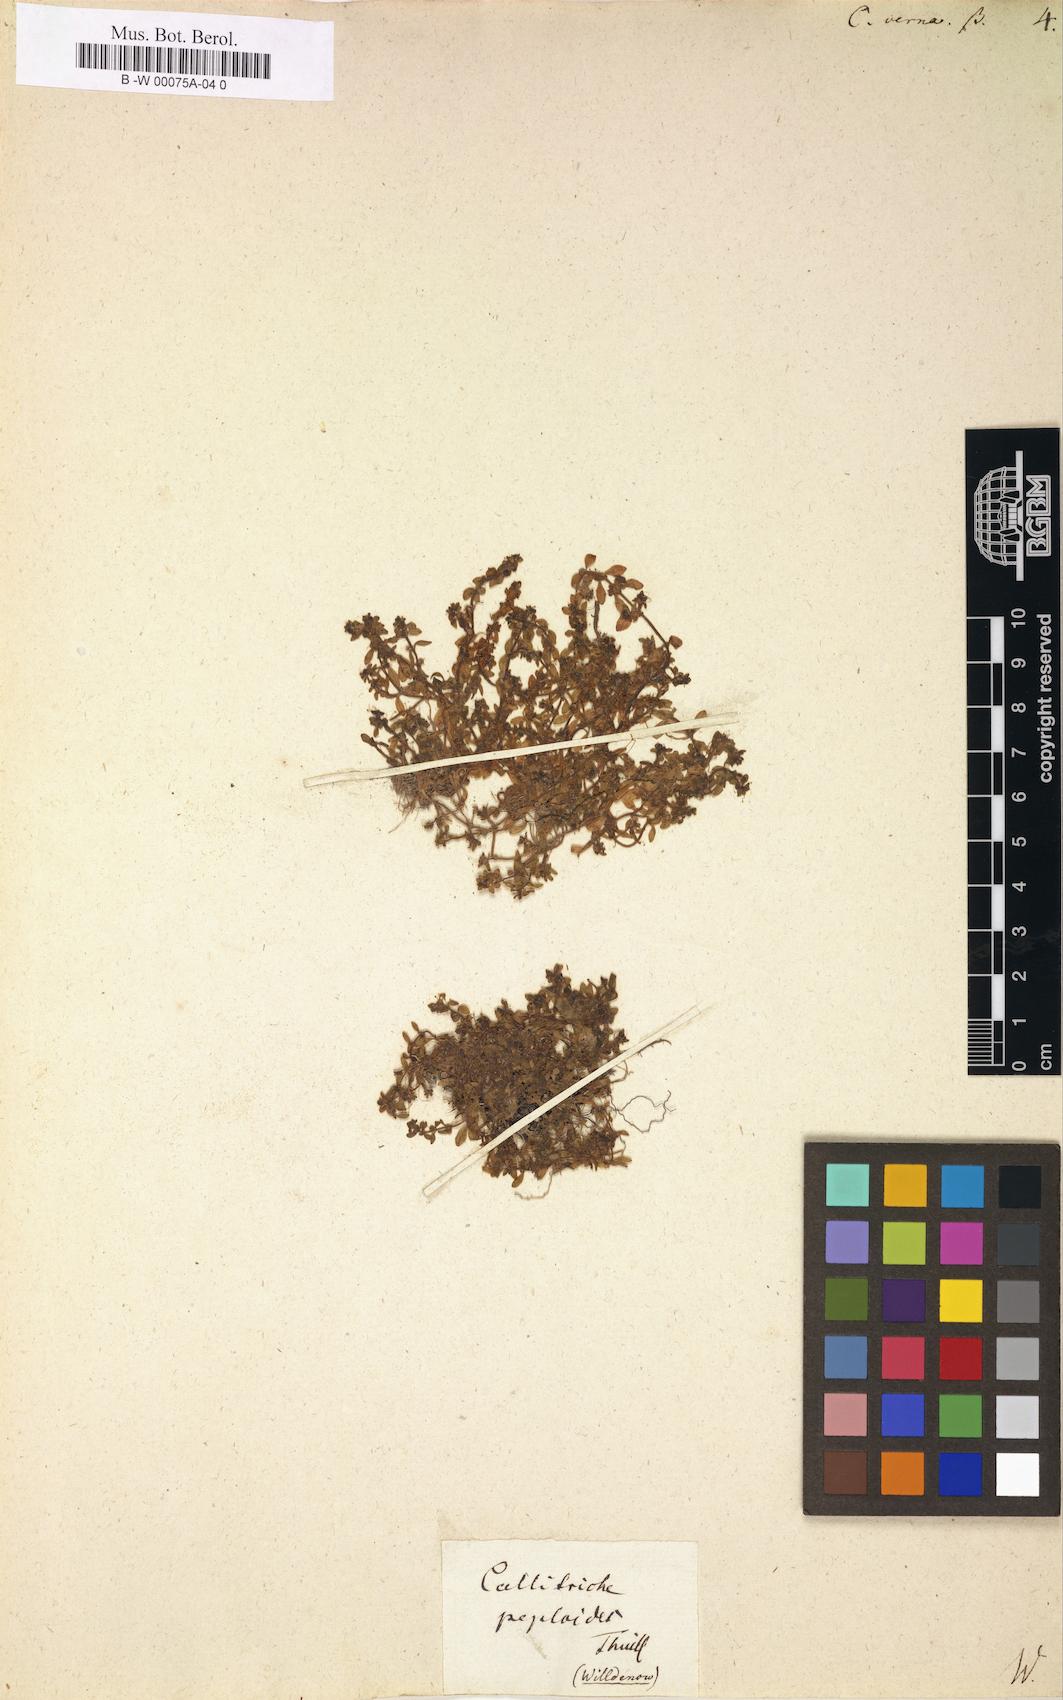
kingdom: Plantae
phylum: Tracheophyta
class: Magnoliopsida
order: Lamiales
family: Plantaginaceae
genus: Callitriche
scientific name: Callitriche
